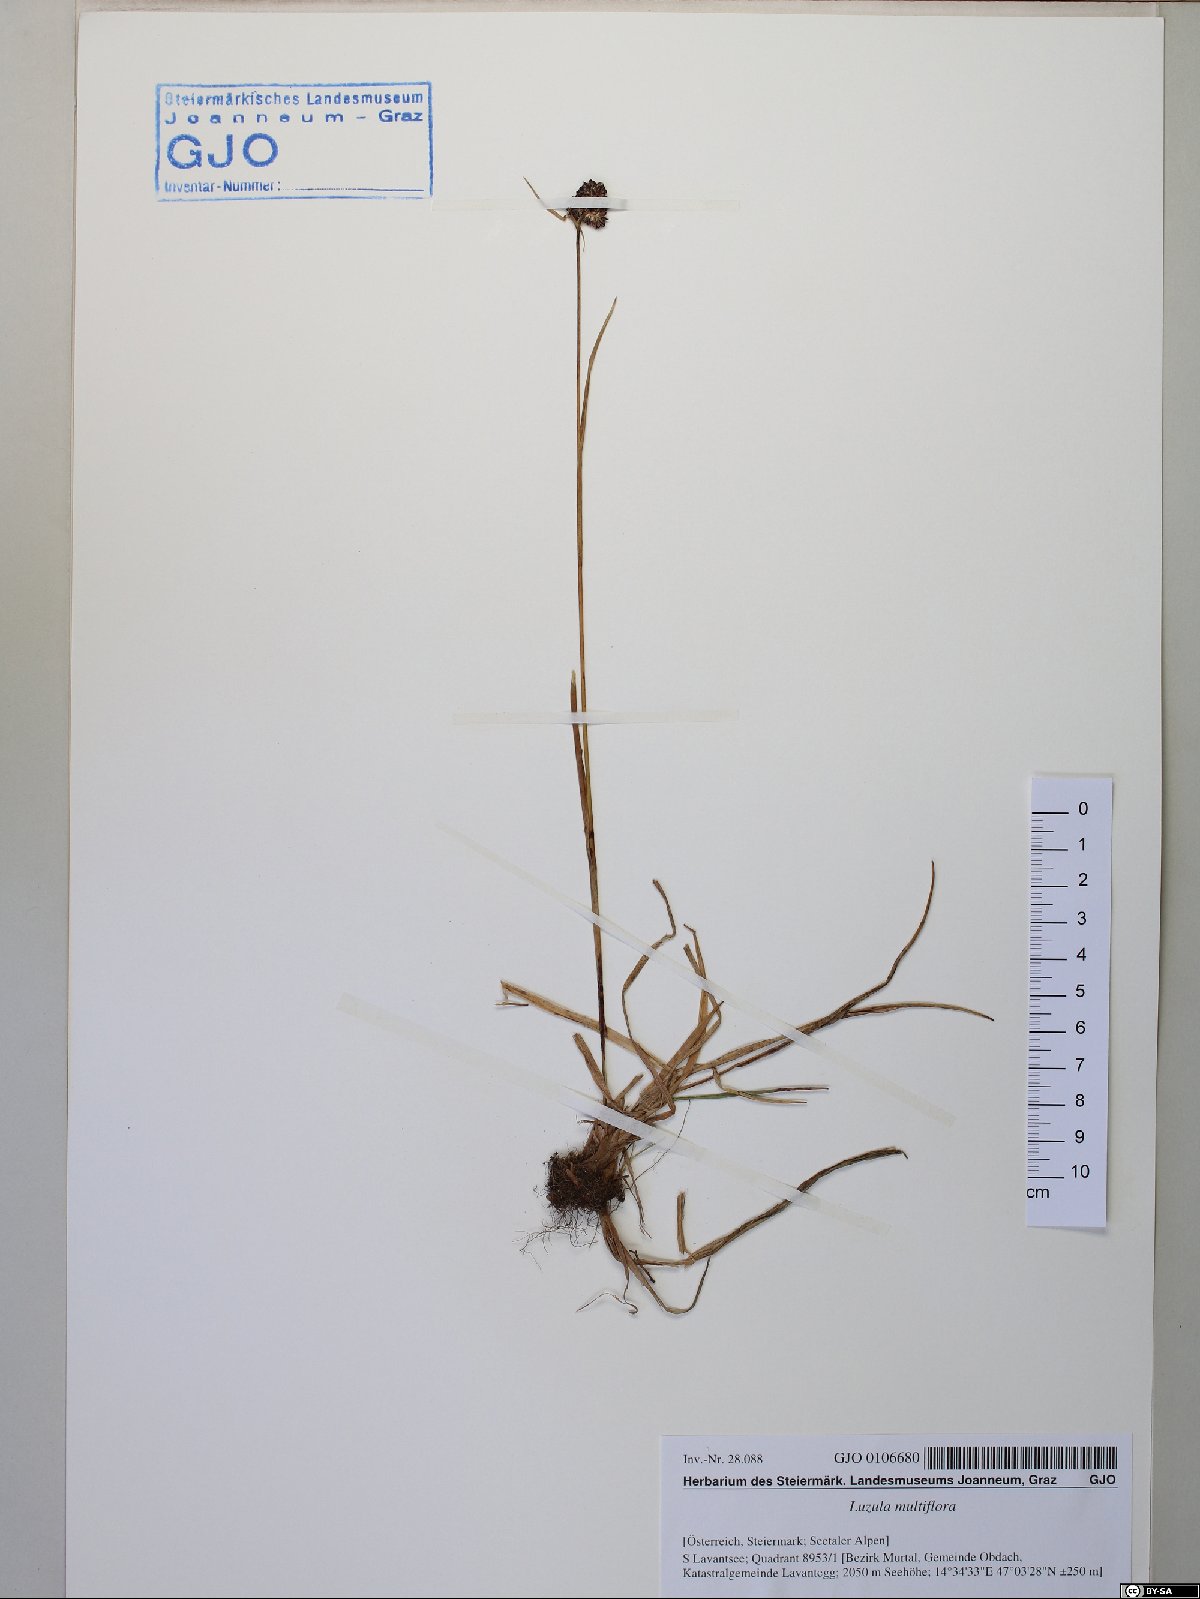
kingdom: Plantae
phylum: Tracheophyta
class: Liliopsida
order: Poales
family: Juncaceae
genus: Luzula
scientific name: Luzula multiflora
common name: Heath wood-rush
